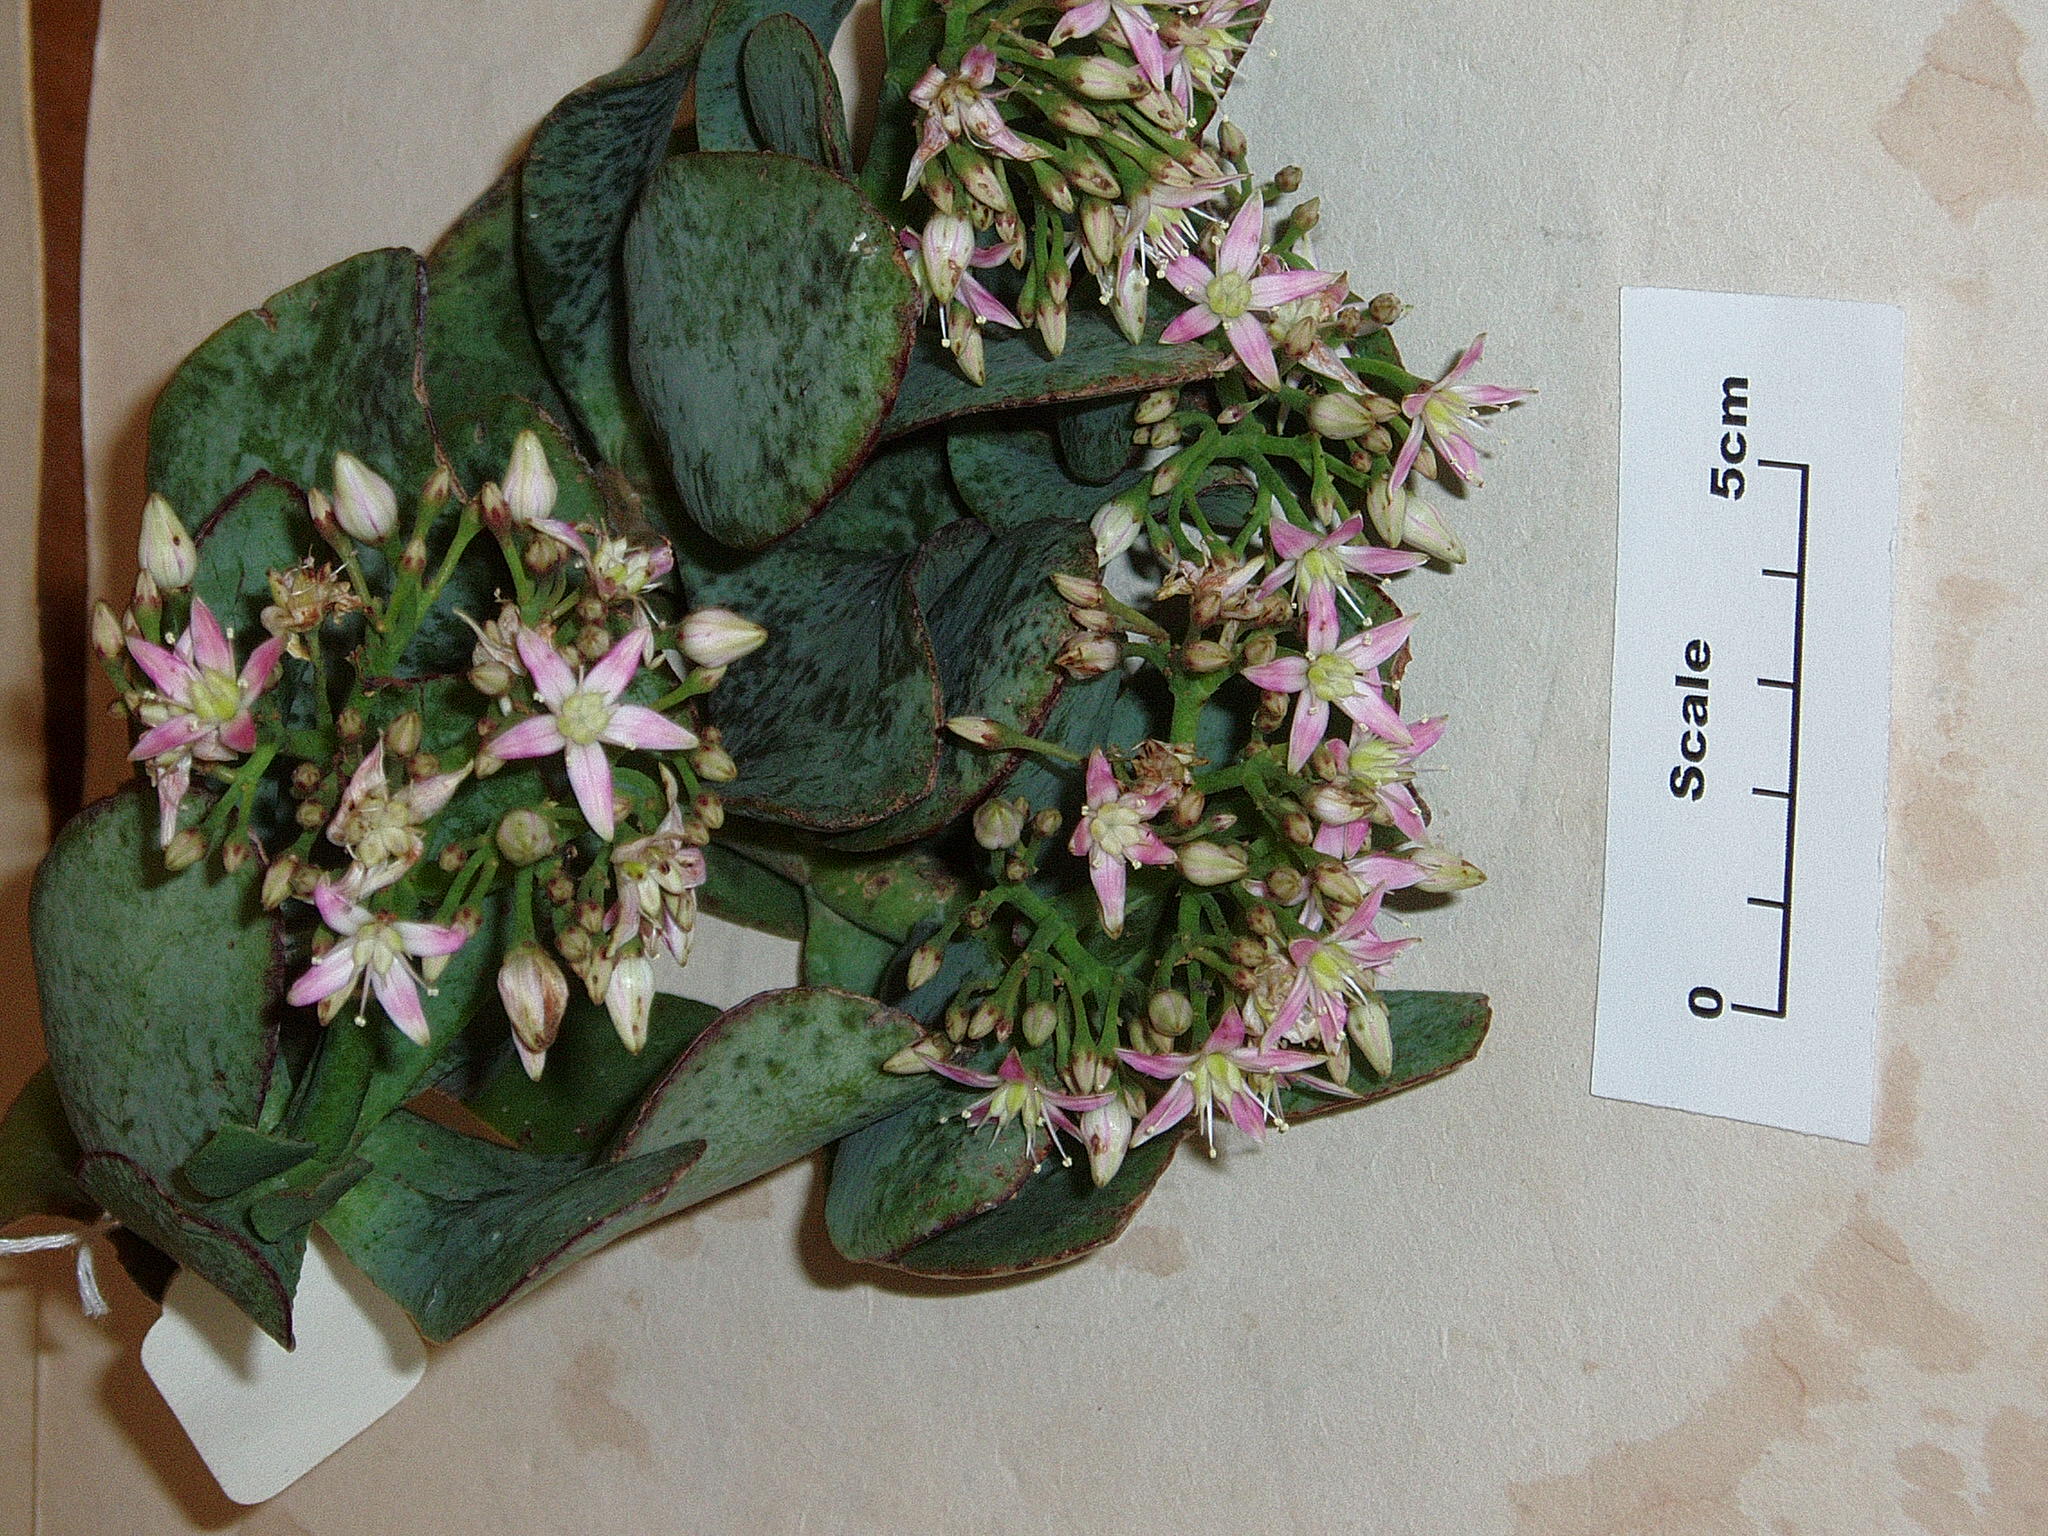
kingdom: Plantae
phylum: Tracheophyta
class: Magnoliopsida
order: Saxifragales
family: Crassulaceae
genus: Crassula
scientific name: Crassula arborescens
